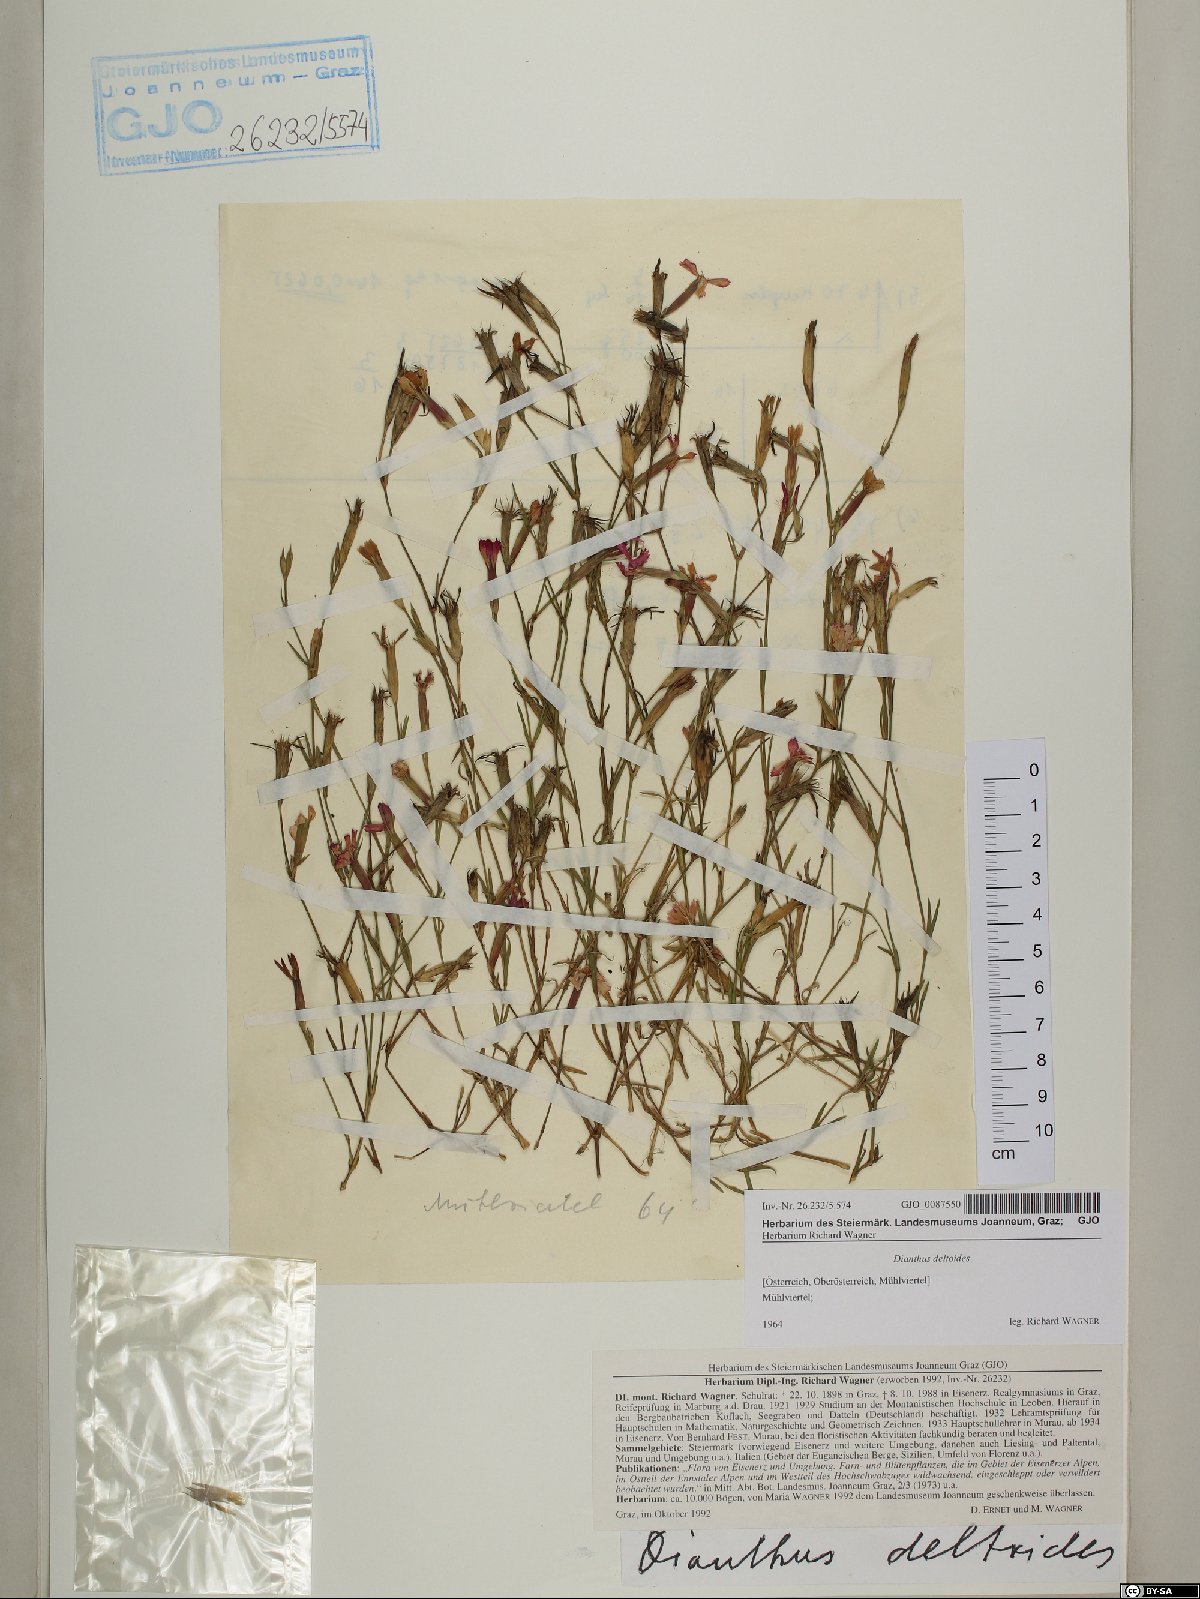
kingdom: Plantae
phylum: Tracheophyta
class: Magnoliopsida
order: Caryophyllales
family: Caryophyllaceae
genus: Dianthus
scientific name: Dianthus deltoides
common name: Maiden pink
